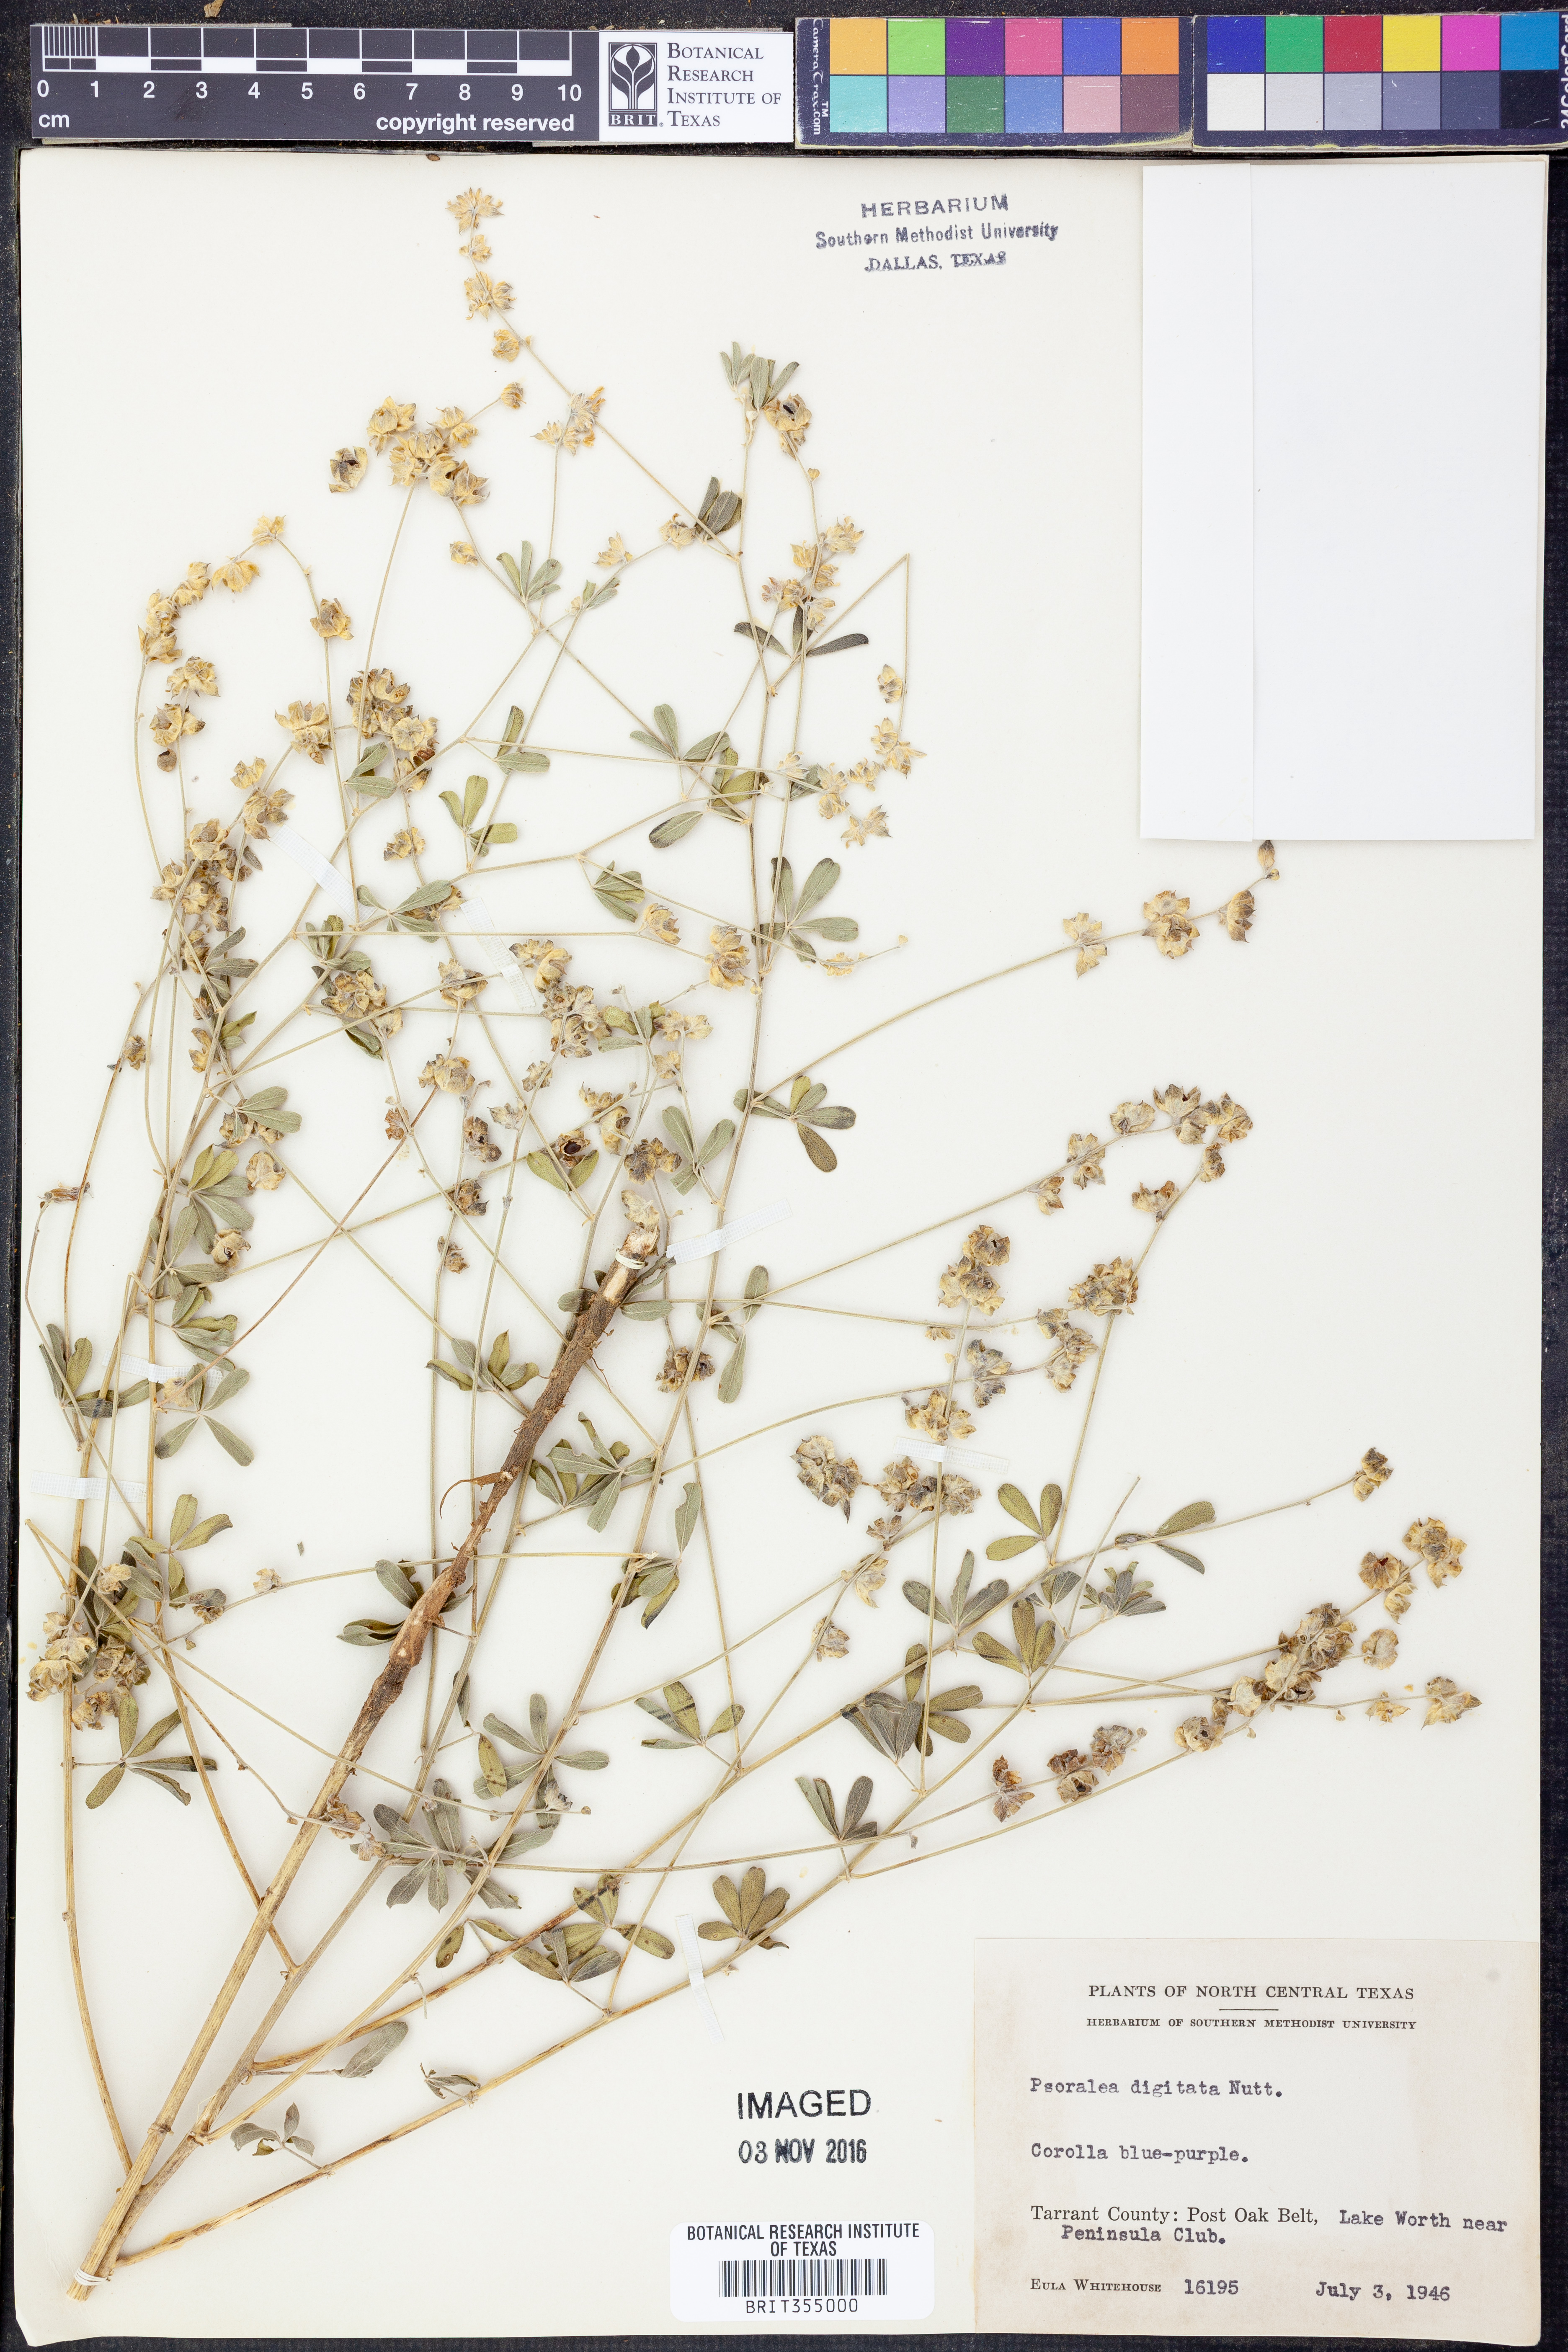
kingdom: Plantae
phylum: Tracheophyta
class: Magnoliopsida
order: Fabales
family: Fabaceae
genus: Pediomelum
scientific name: Pediomelum digitatum
